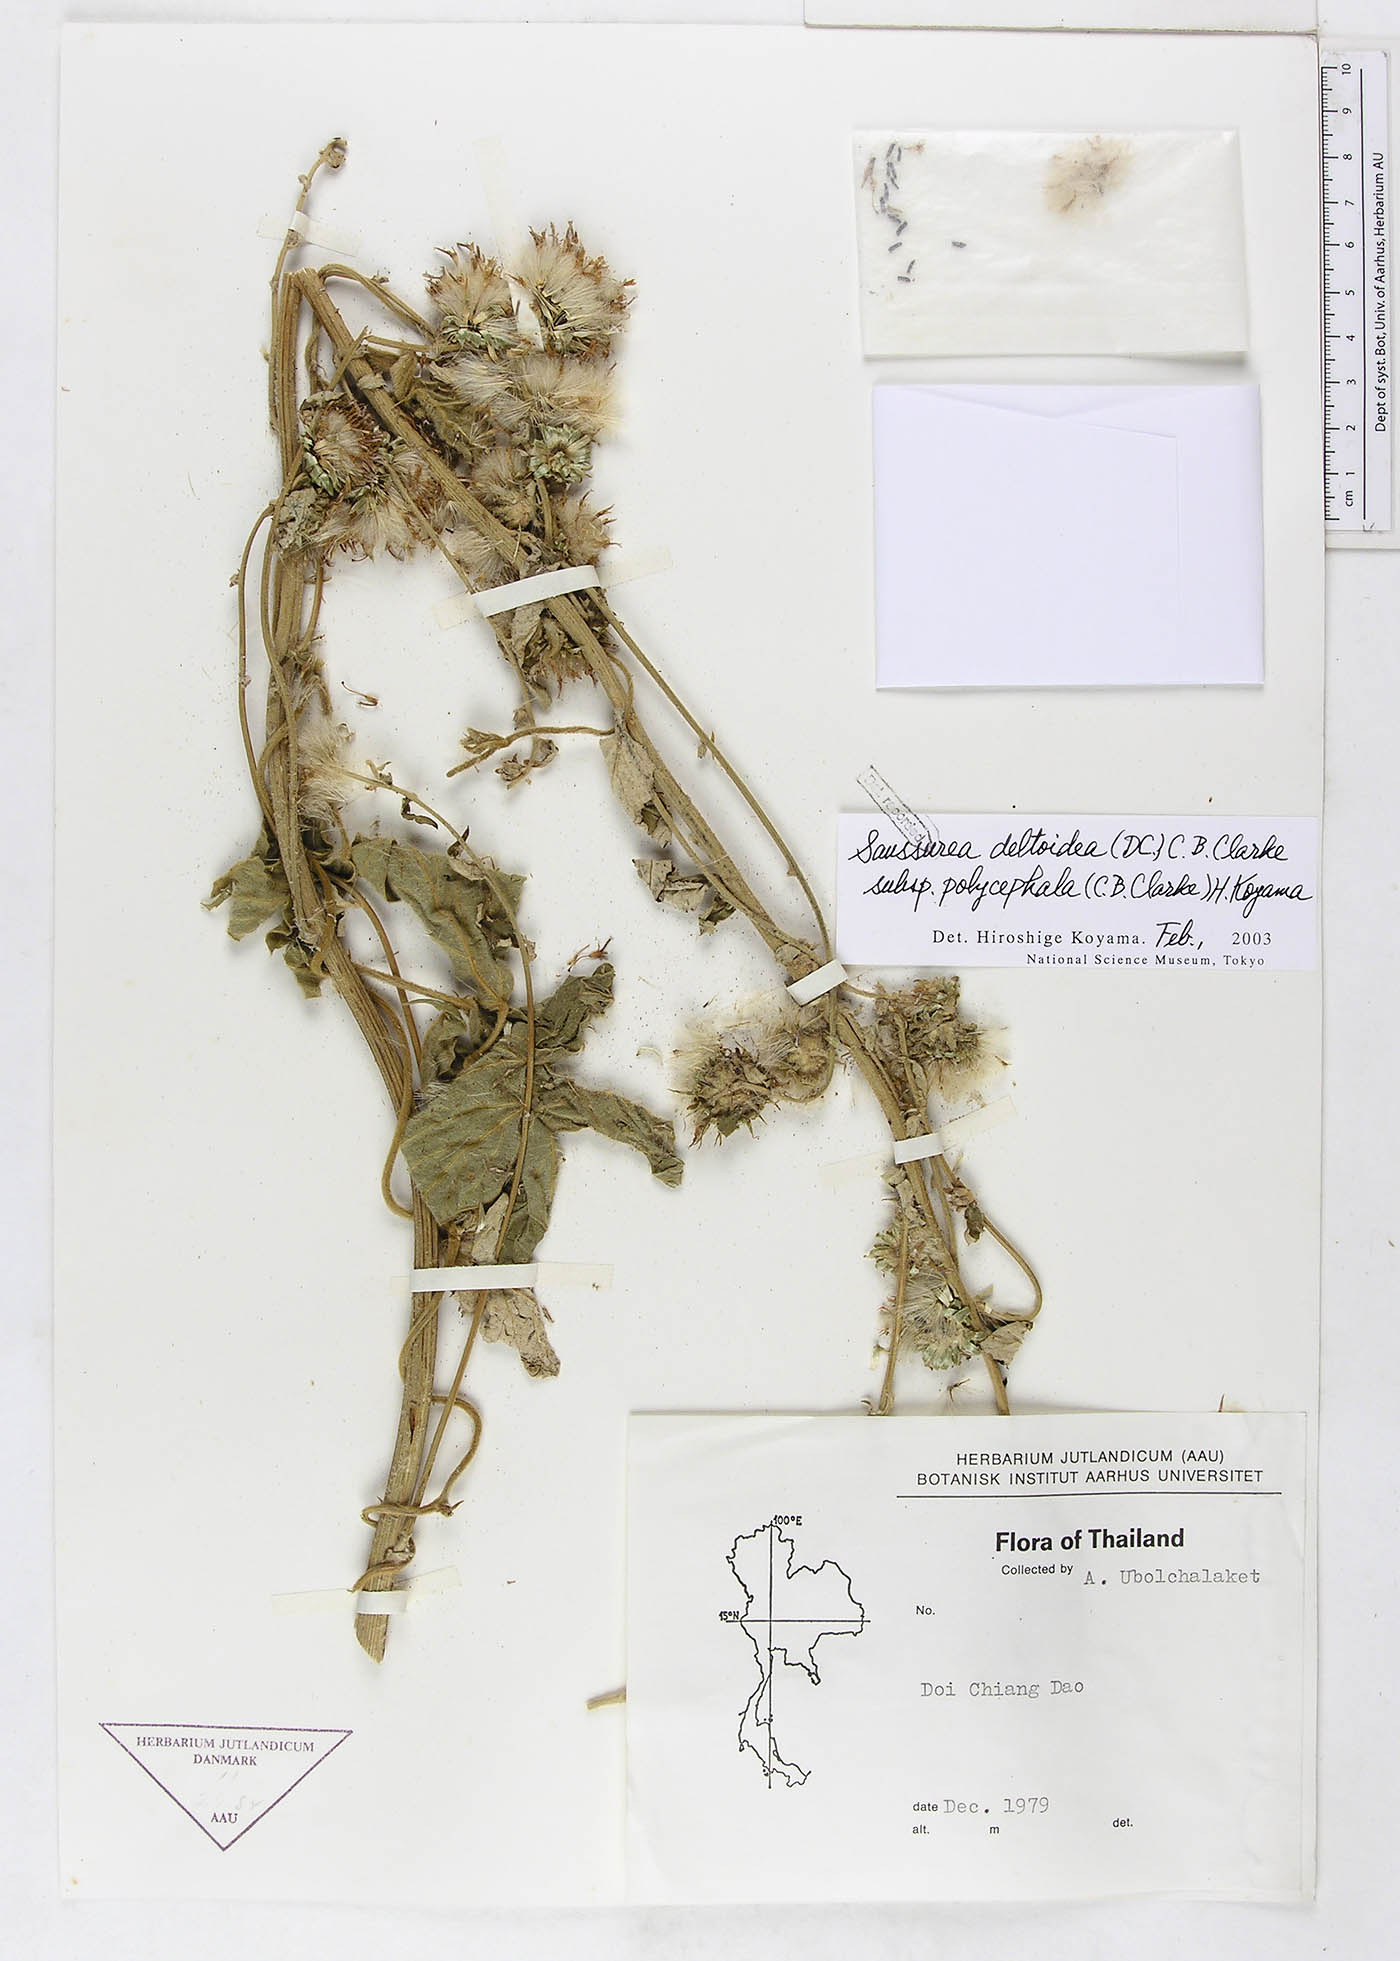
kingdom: Plantae
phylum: Tracheophyta
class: Magnoliopsida
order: Asterales
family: Asteraceae
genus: Jurinea
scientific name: Jurinea crispa
